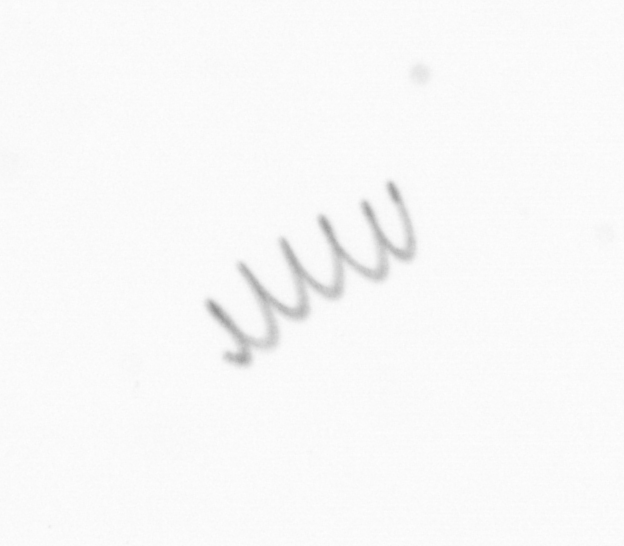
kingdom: Chromista
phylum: Ochrophyta
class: Bacillariophyceae
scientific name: Bacillariophyceae
